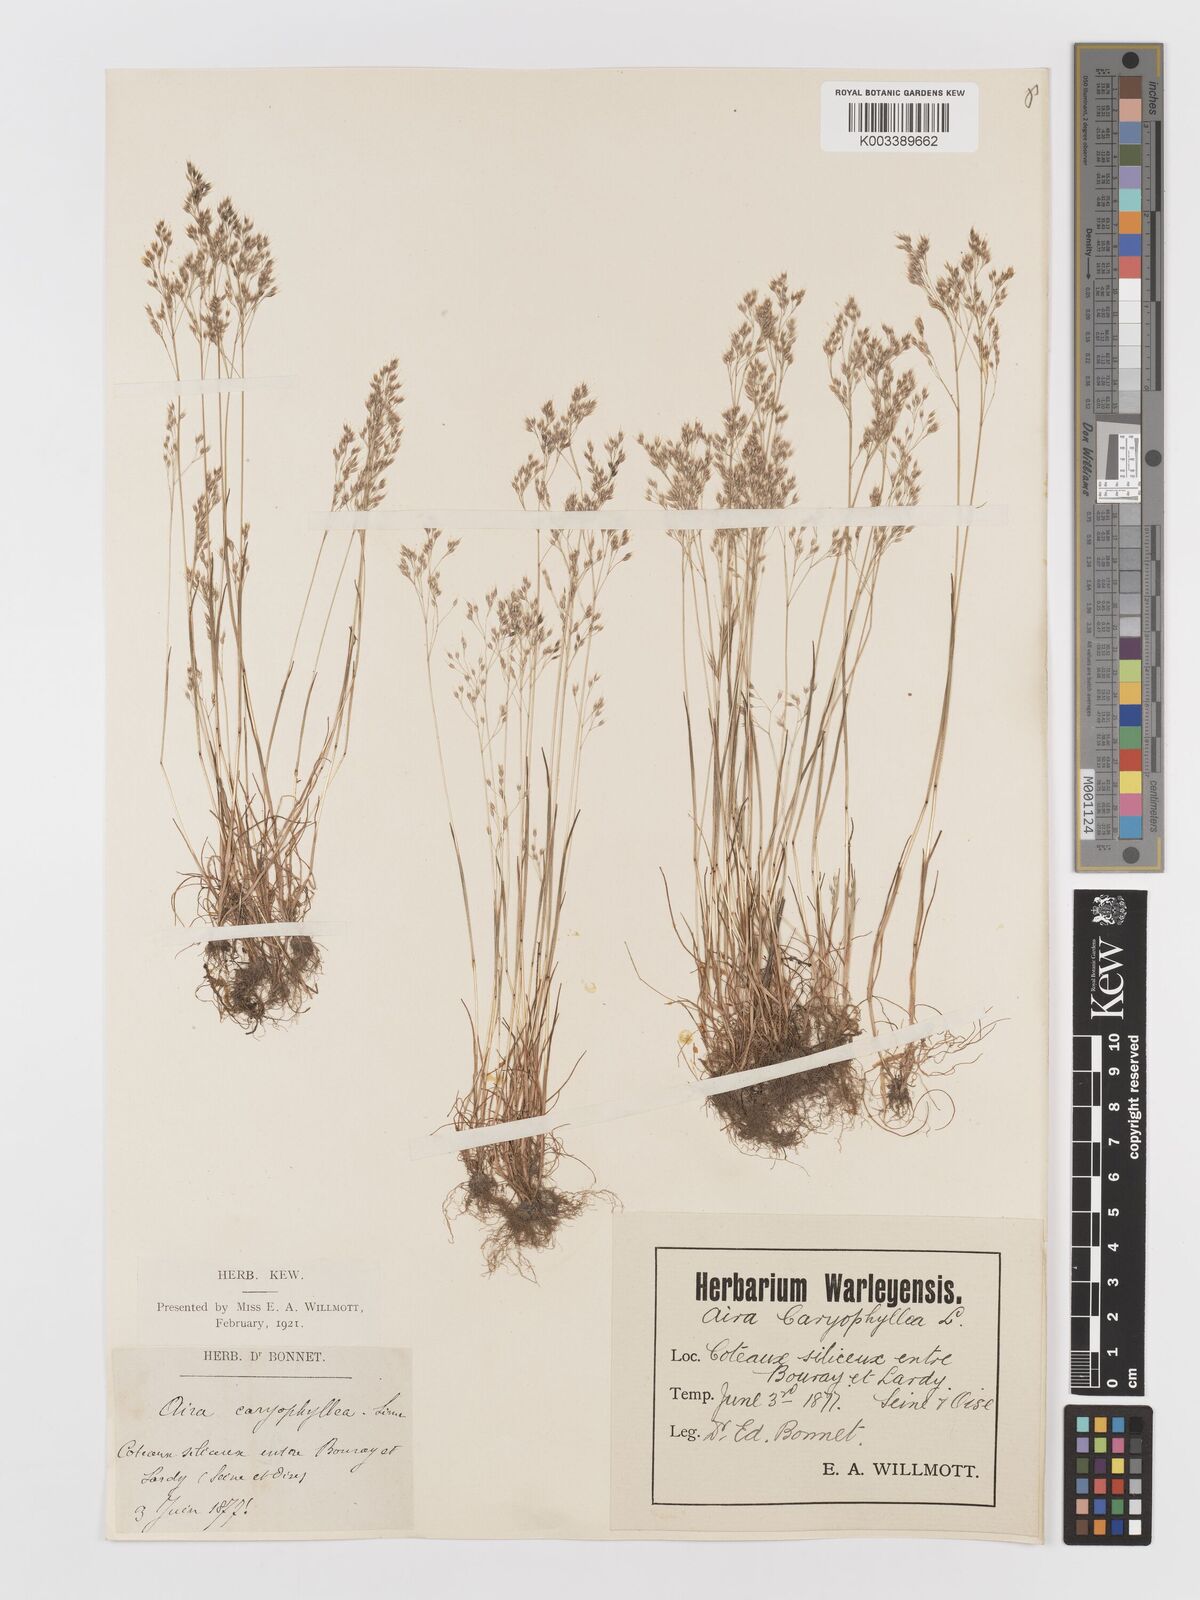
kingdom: Plantae
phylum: Tracheophyta
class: Liliopsida
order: Poales
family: Poaceae
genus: Aira
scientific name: Aira caryophyllea
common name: Silver hairgrass
